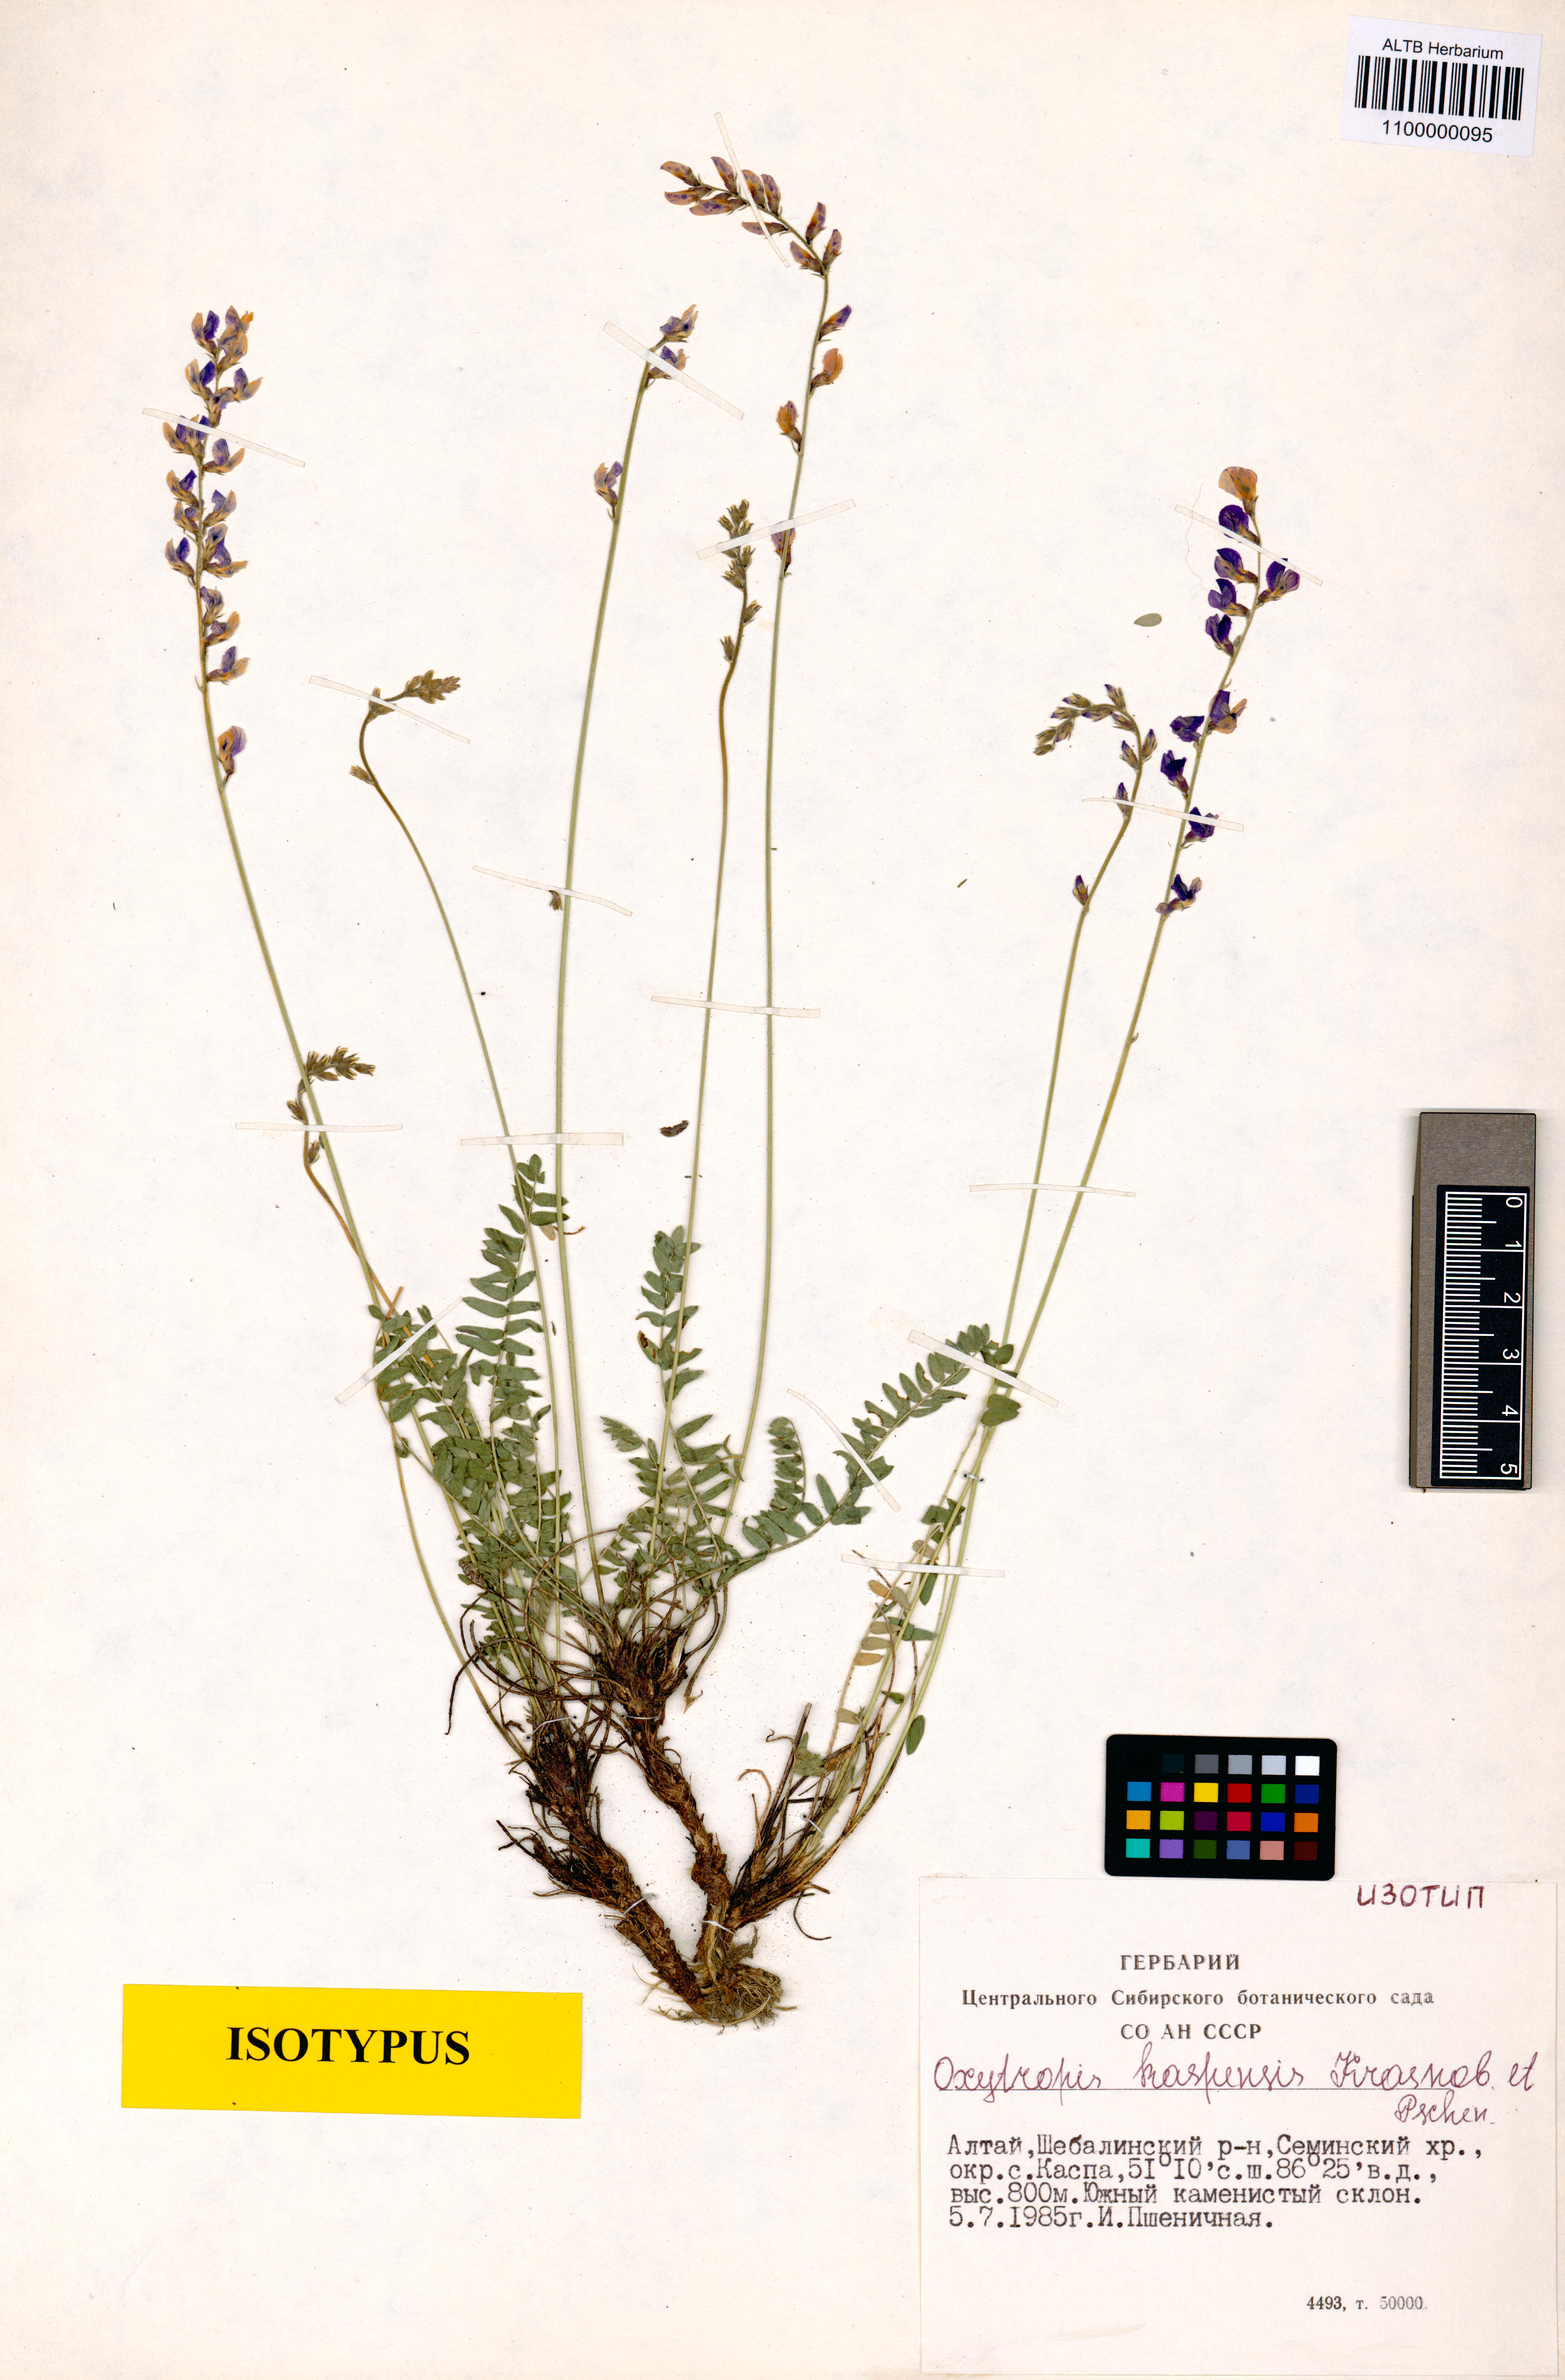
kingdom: Plantae
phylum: Tracheophyta
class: Magnoliopsida
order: Fabales
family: Fabaceae
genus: Oxytropis
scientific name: Oxytropis kaspensis
